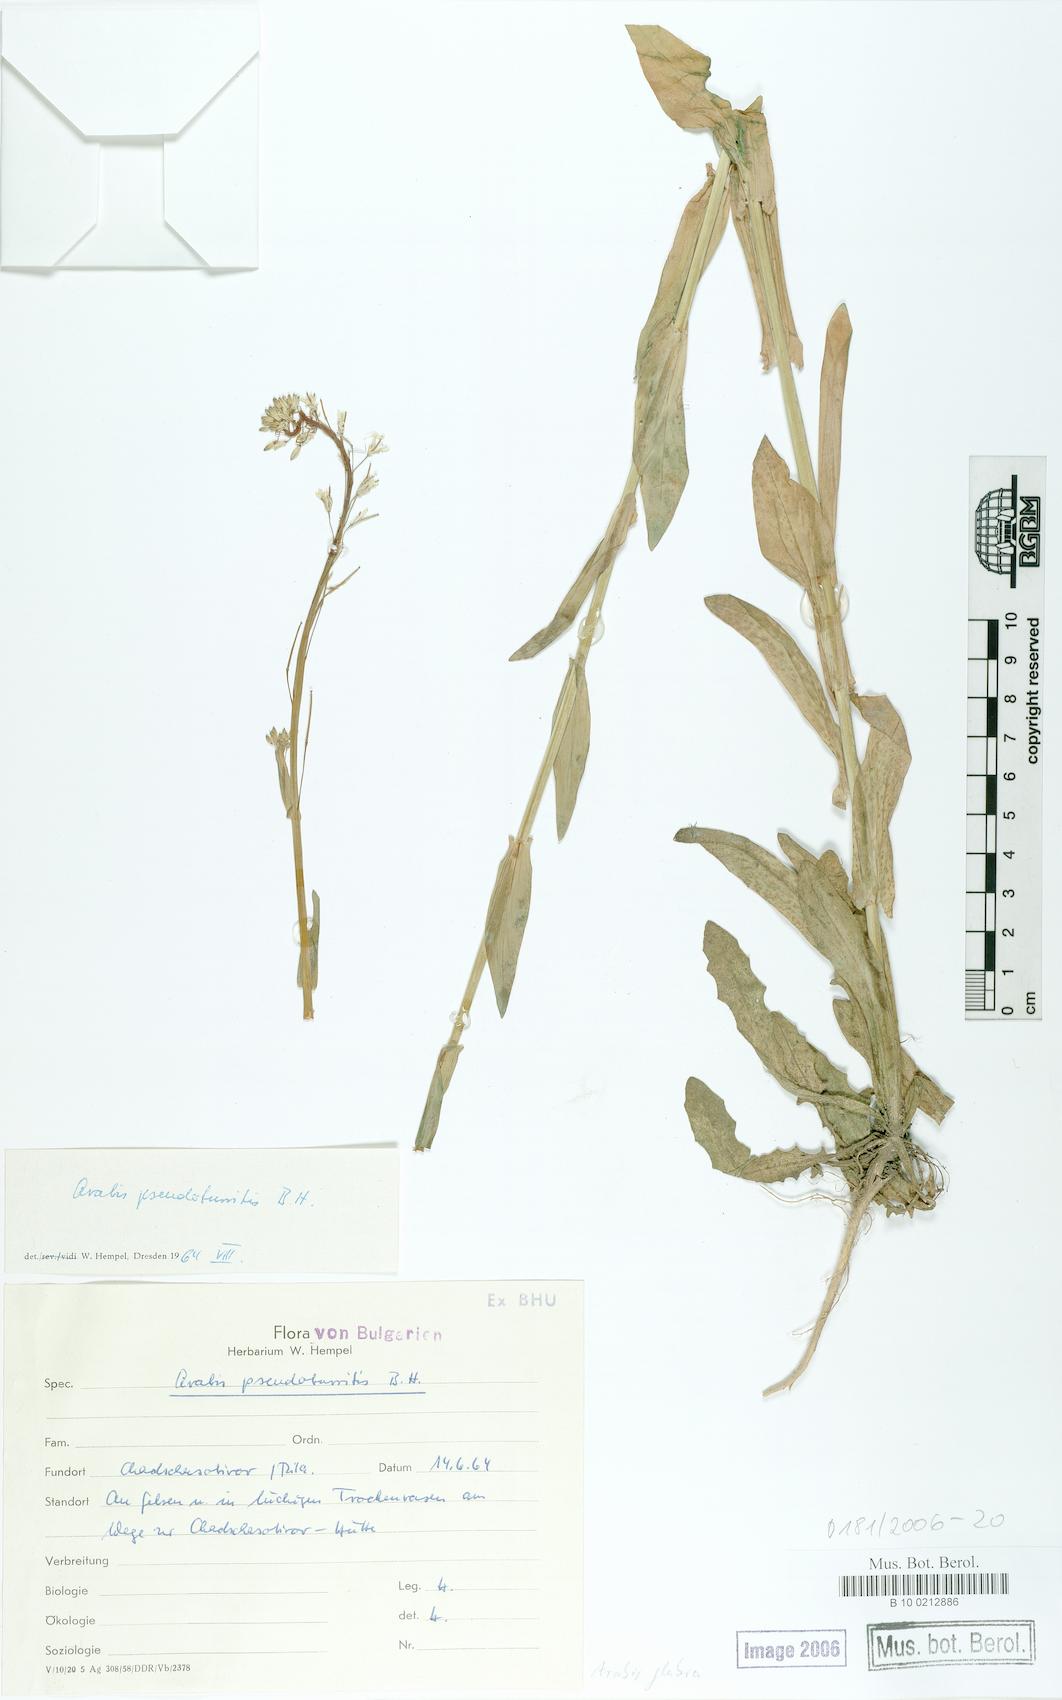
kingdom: Plantae
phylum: Tracheophyta
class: Magnoliopsida
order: Brassicales
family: Brassicaceae
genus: Turritis
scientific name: Turritis glabra
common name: Tower rockcress
